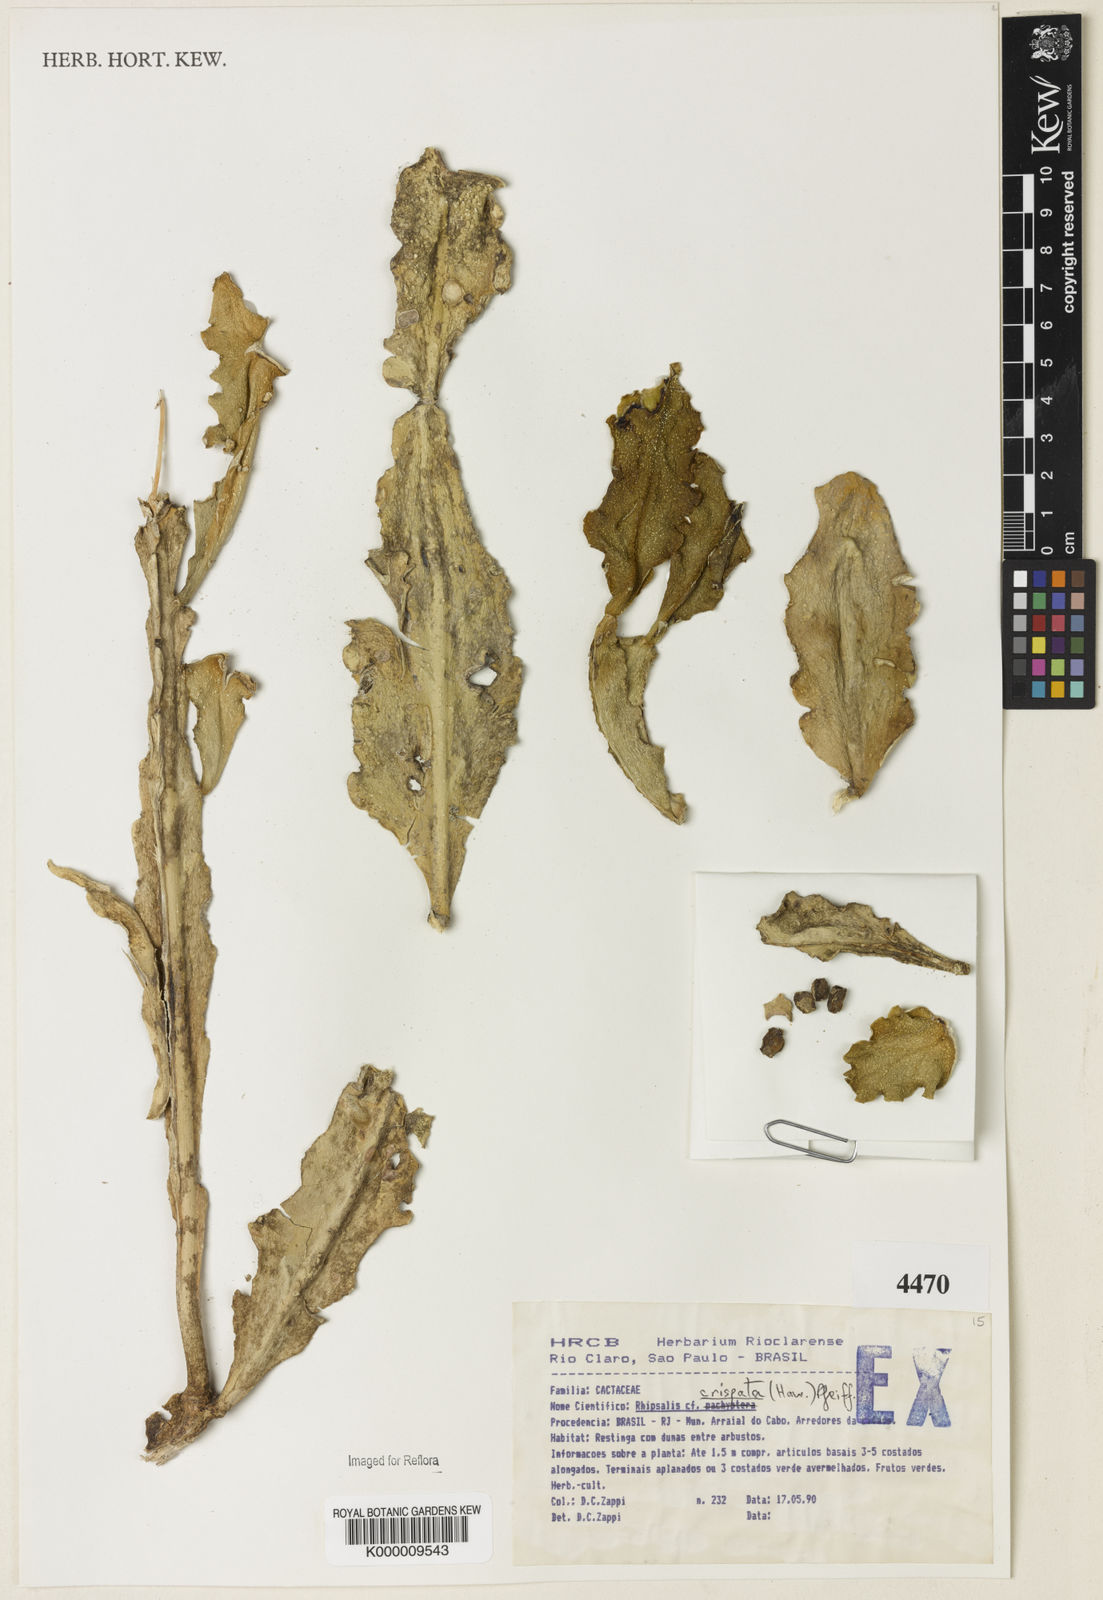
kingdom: Plantae
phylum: Tracheophyta
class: Magnoliopsida
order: Caryophyllales
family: Cactaceae
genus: Rhipsalis
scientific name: Rhipsalis crispata
